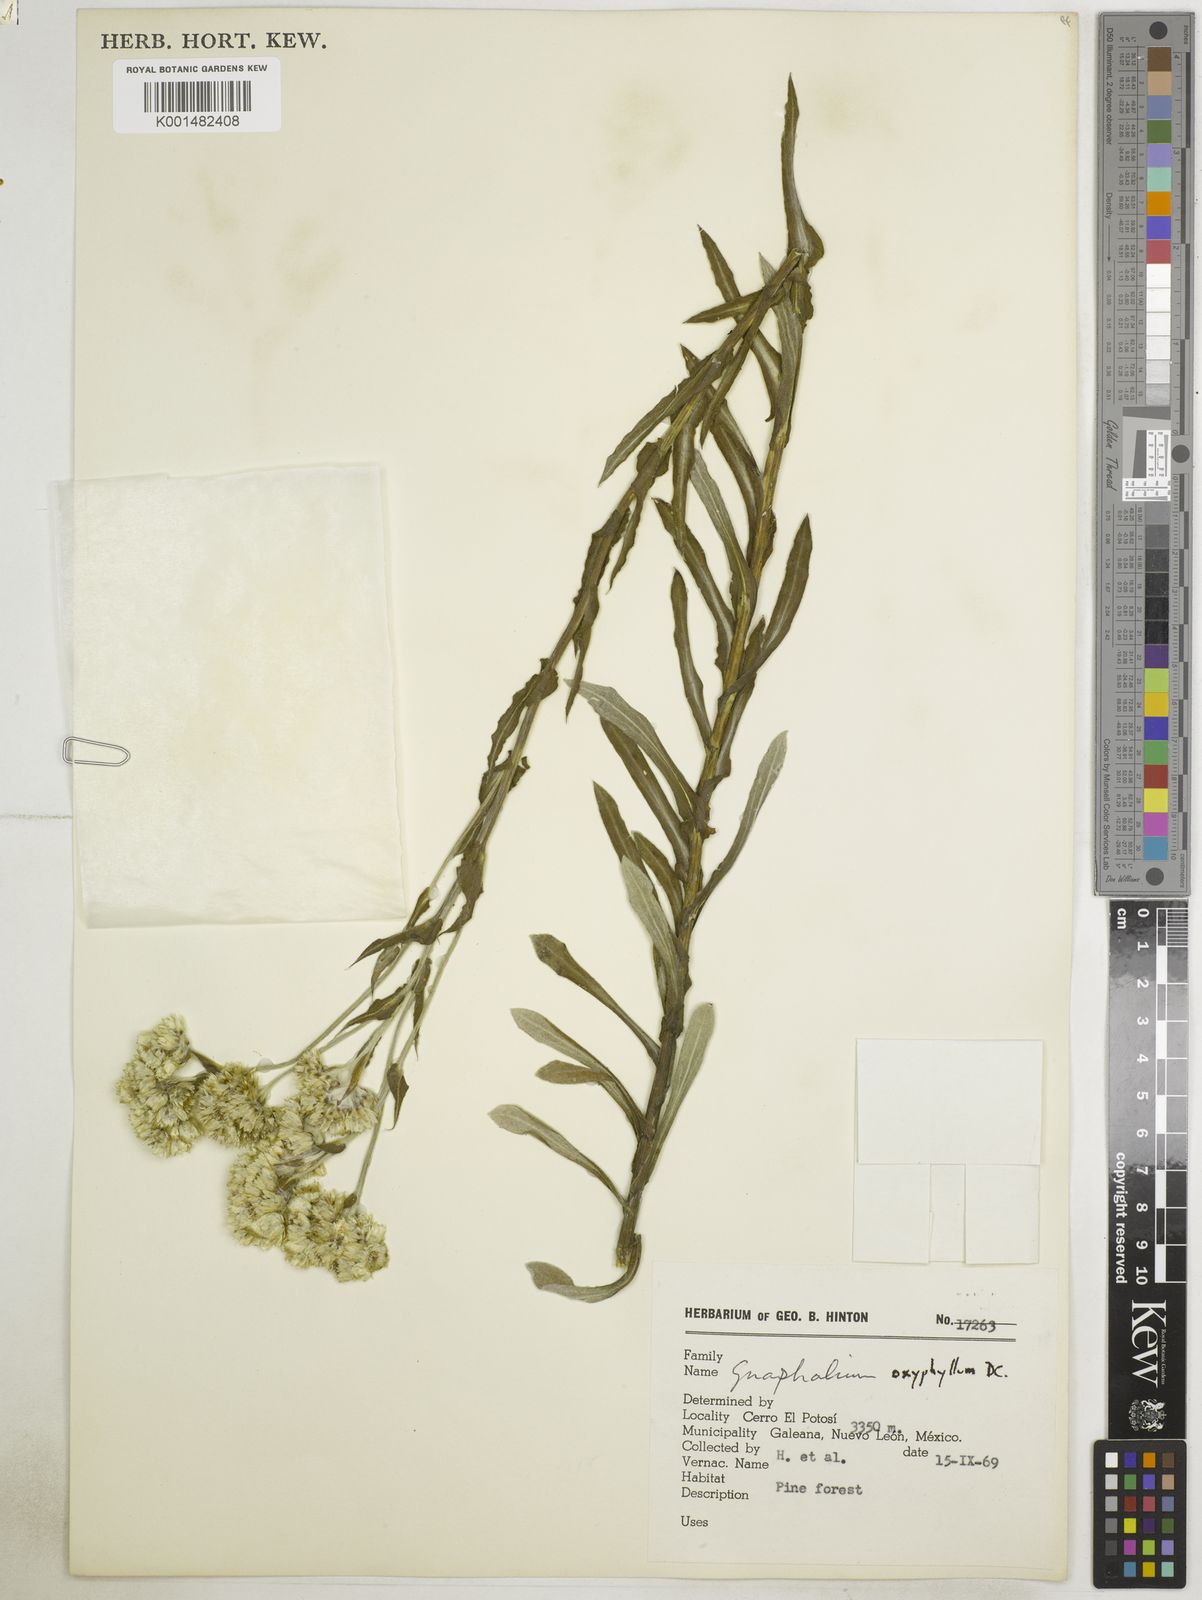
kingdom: Plantae
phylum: Tracheophyta
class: Magnoliopsida
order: Asterales
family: Asteraceae
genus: Pseudognaphalium
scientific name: Pseudognaphalium oxyphyllum
